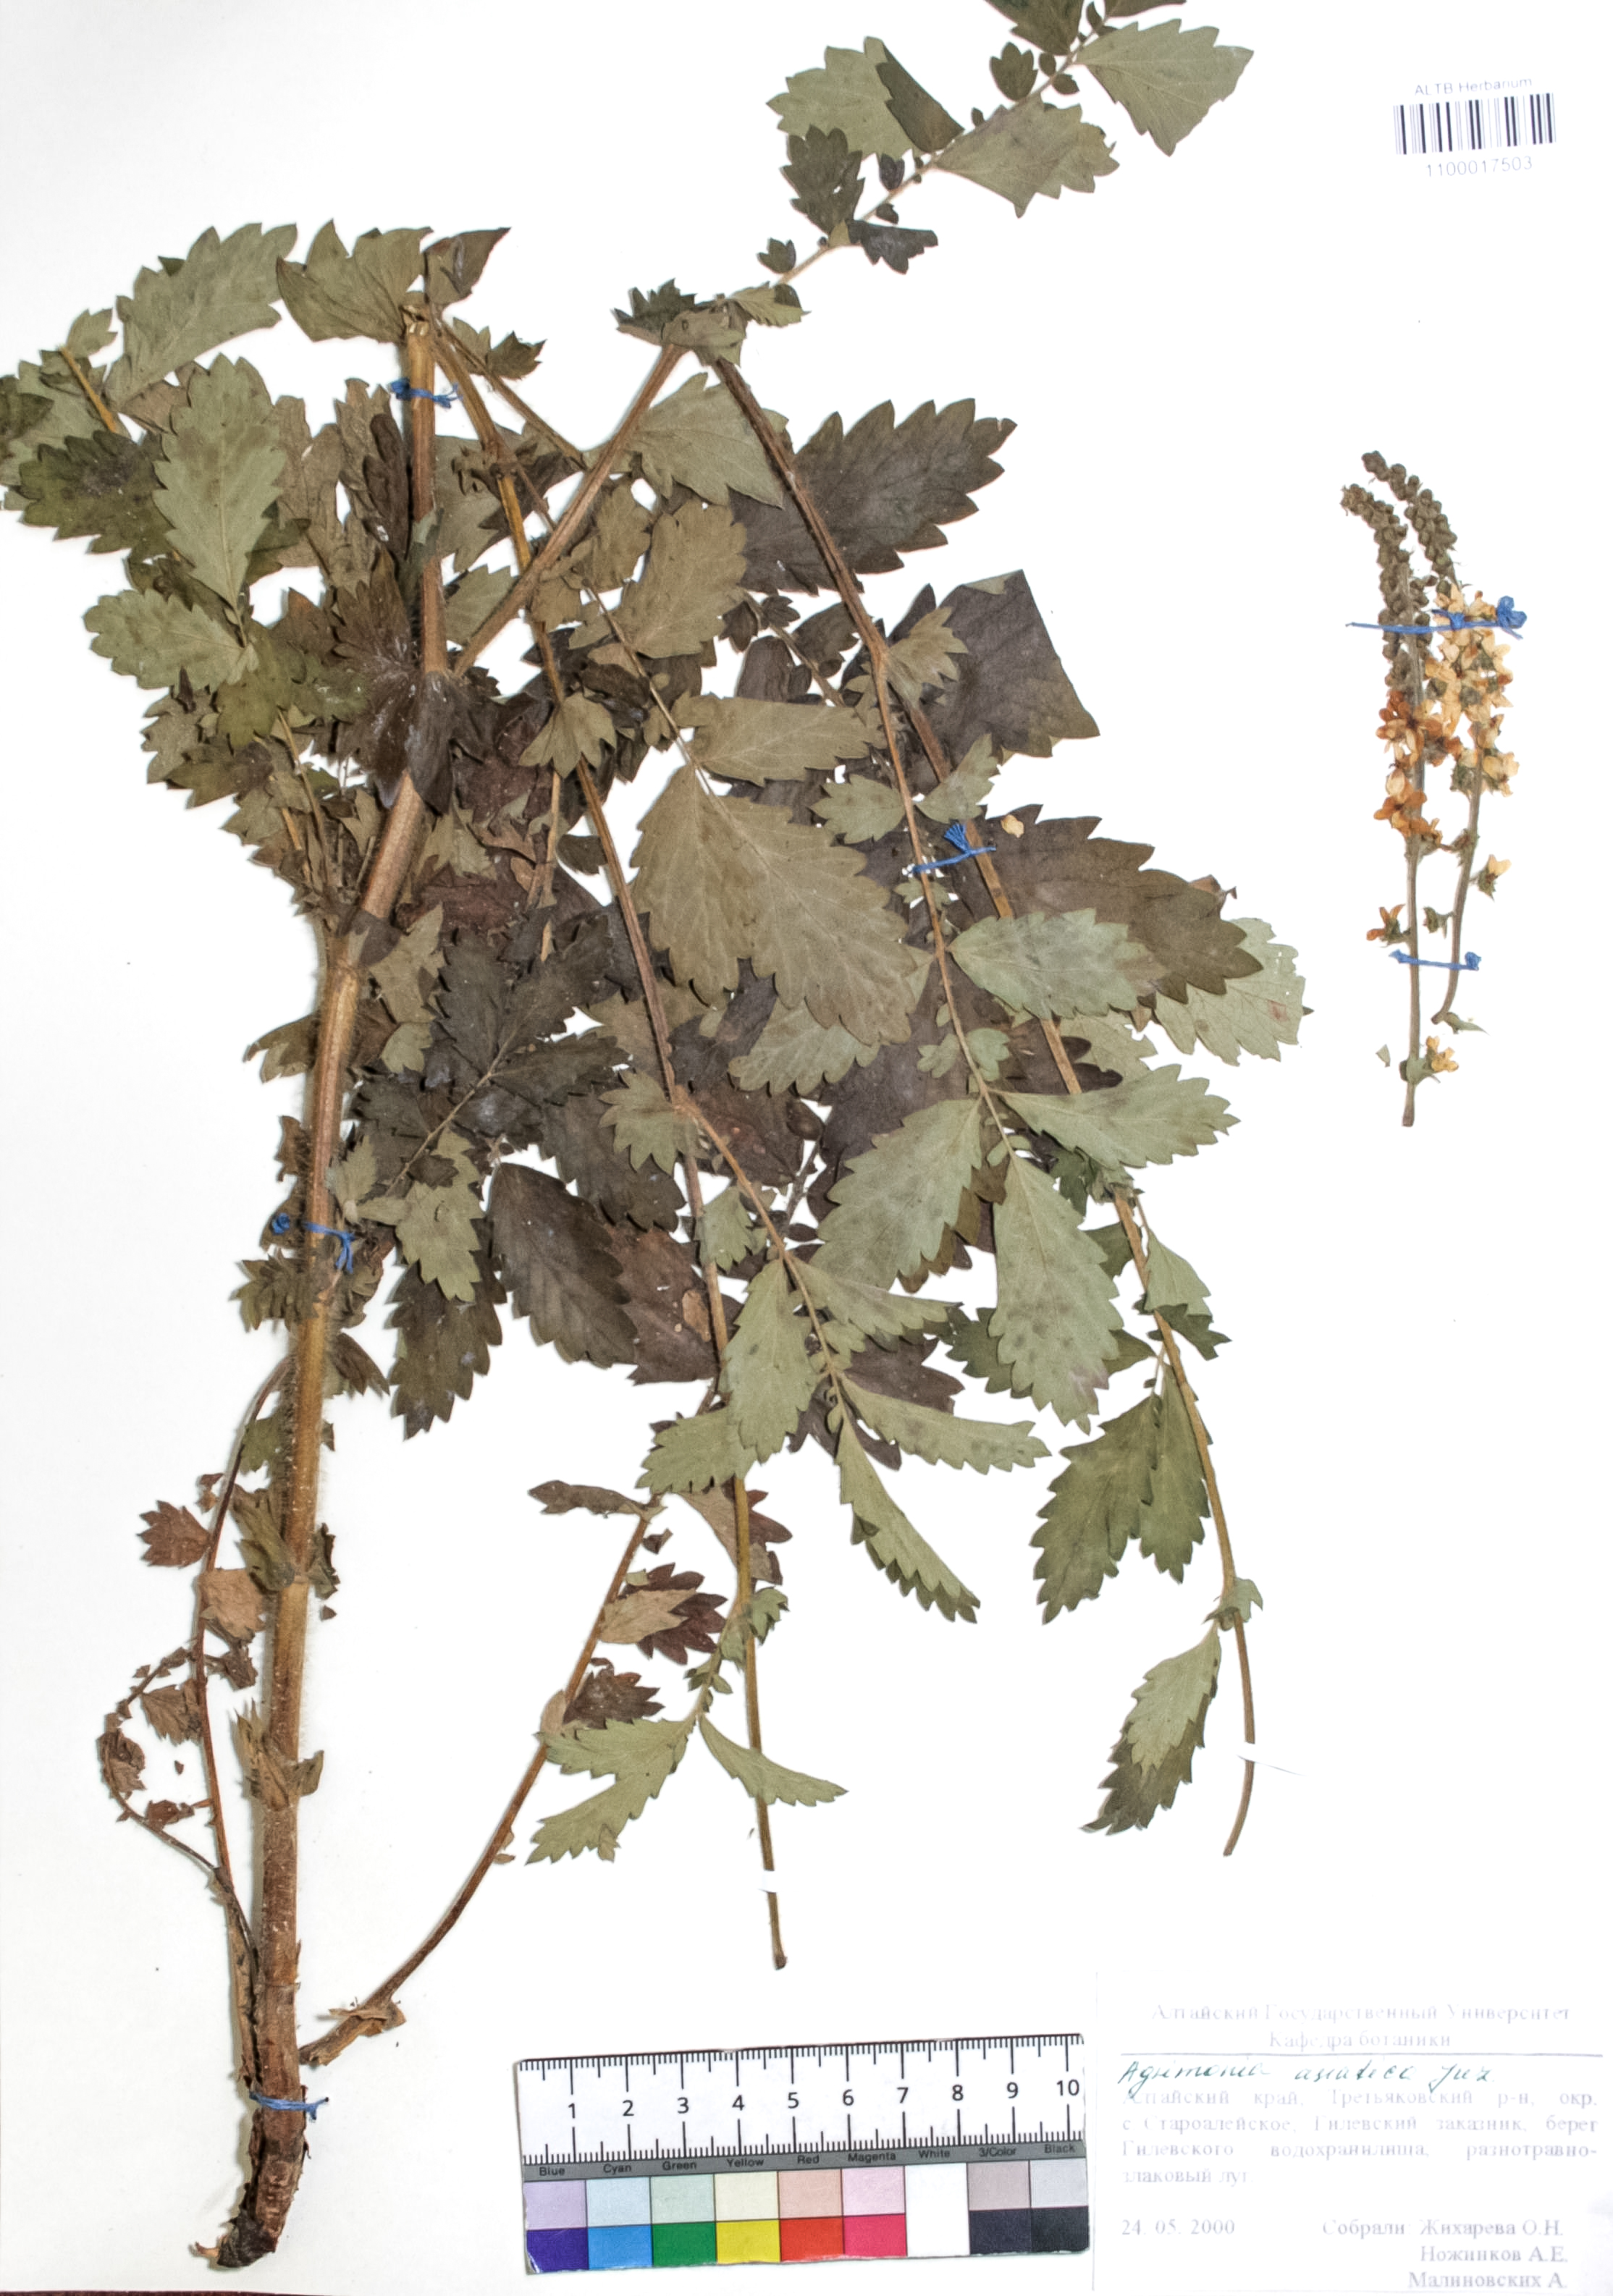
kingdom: Plantae
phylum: Tracheophyta
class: Magnoliopsida
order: Rosales
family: Rosaceae
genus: Agrimonia
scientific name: Agrimonia eupatoria
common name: Agrimony
